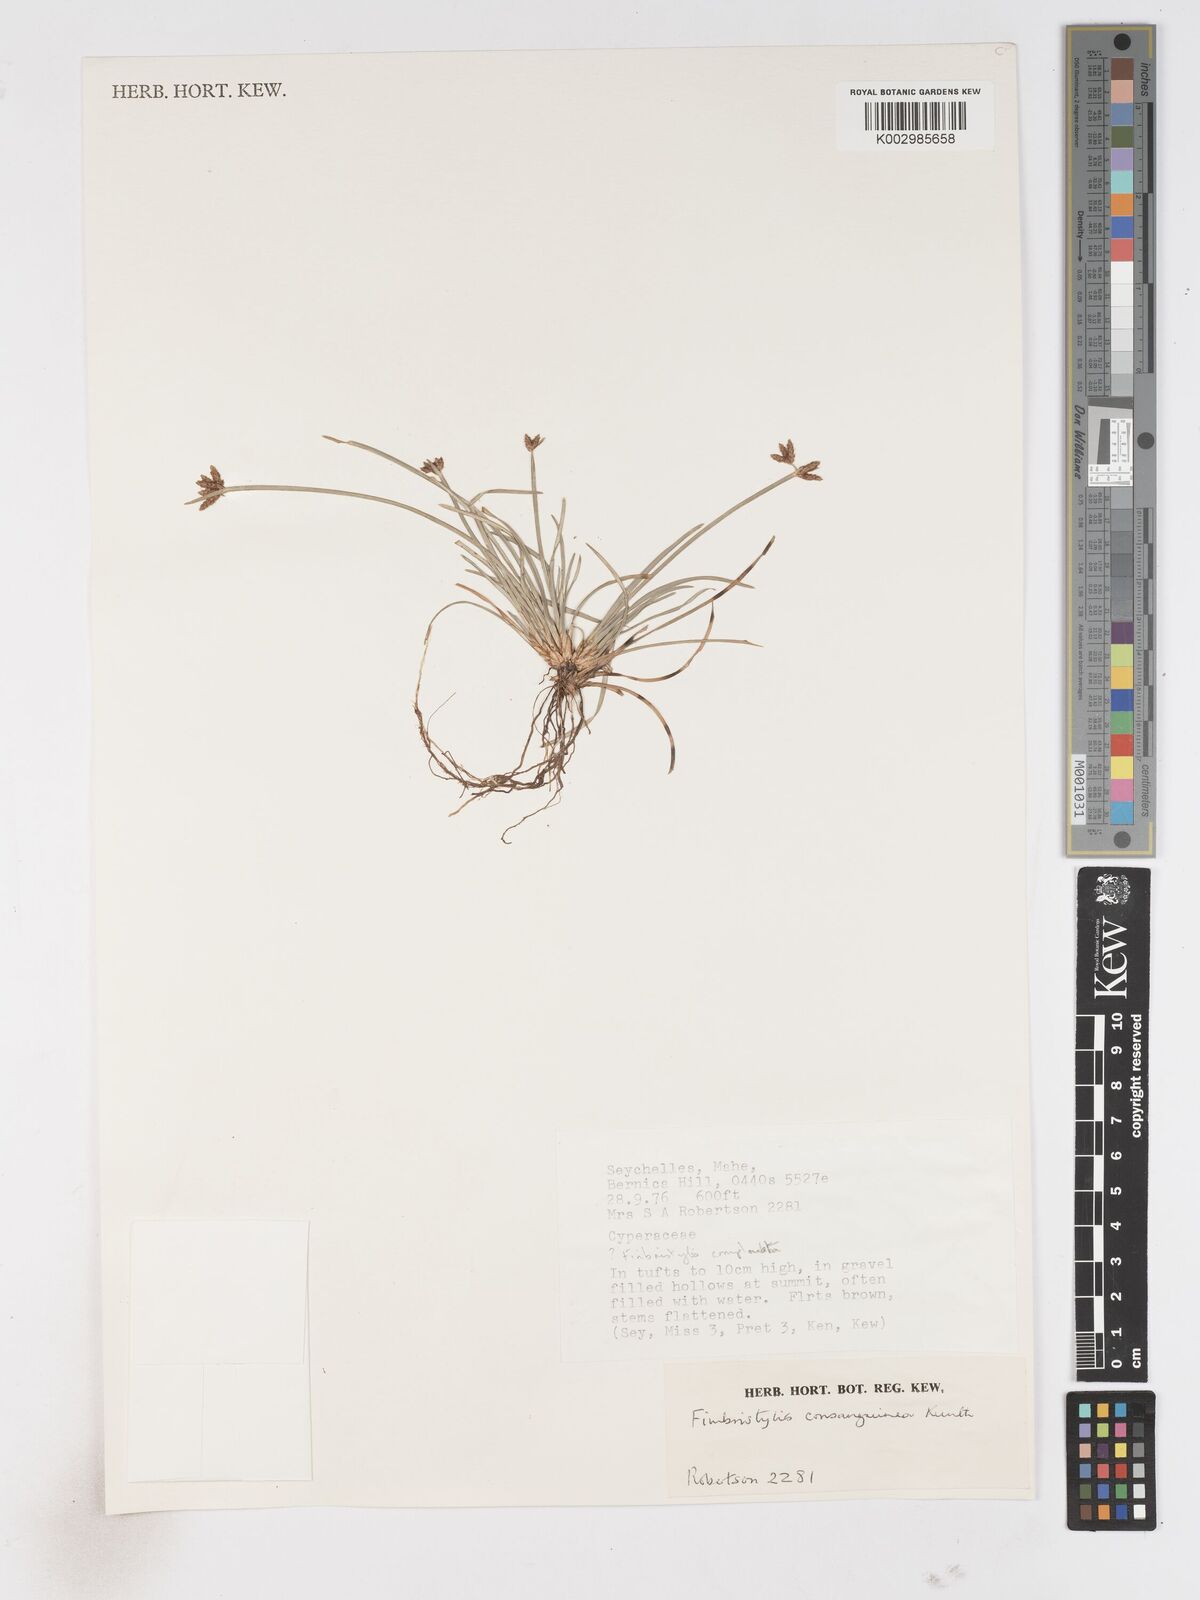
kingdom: Plantae
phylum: Tracheophyta
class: Liliopsida
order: Poales
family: Cyperaceae
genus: Fimbristylis
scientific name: Fimbristylis consanguinea
